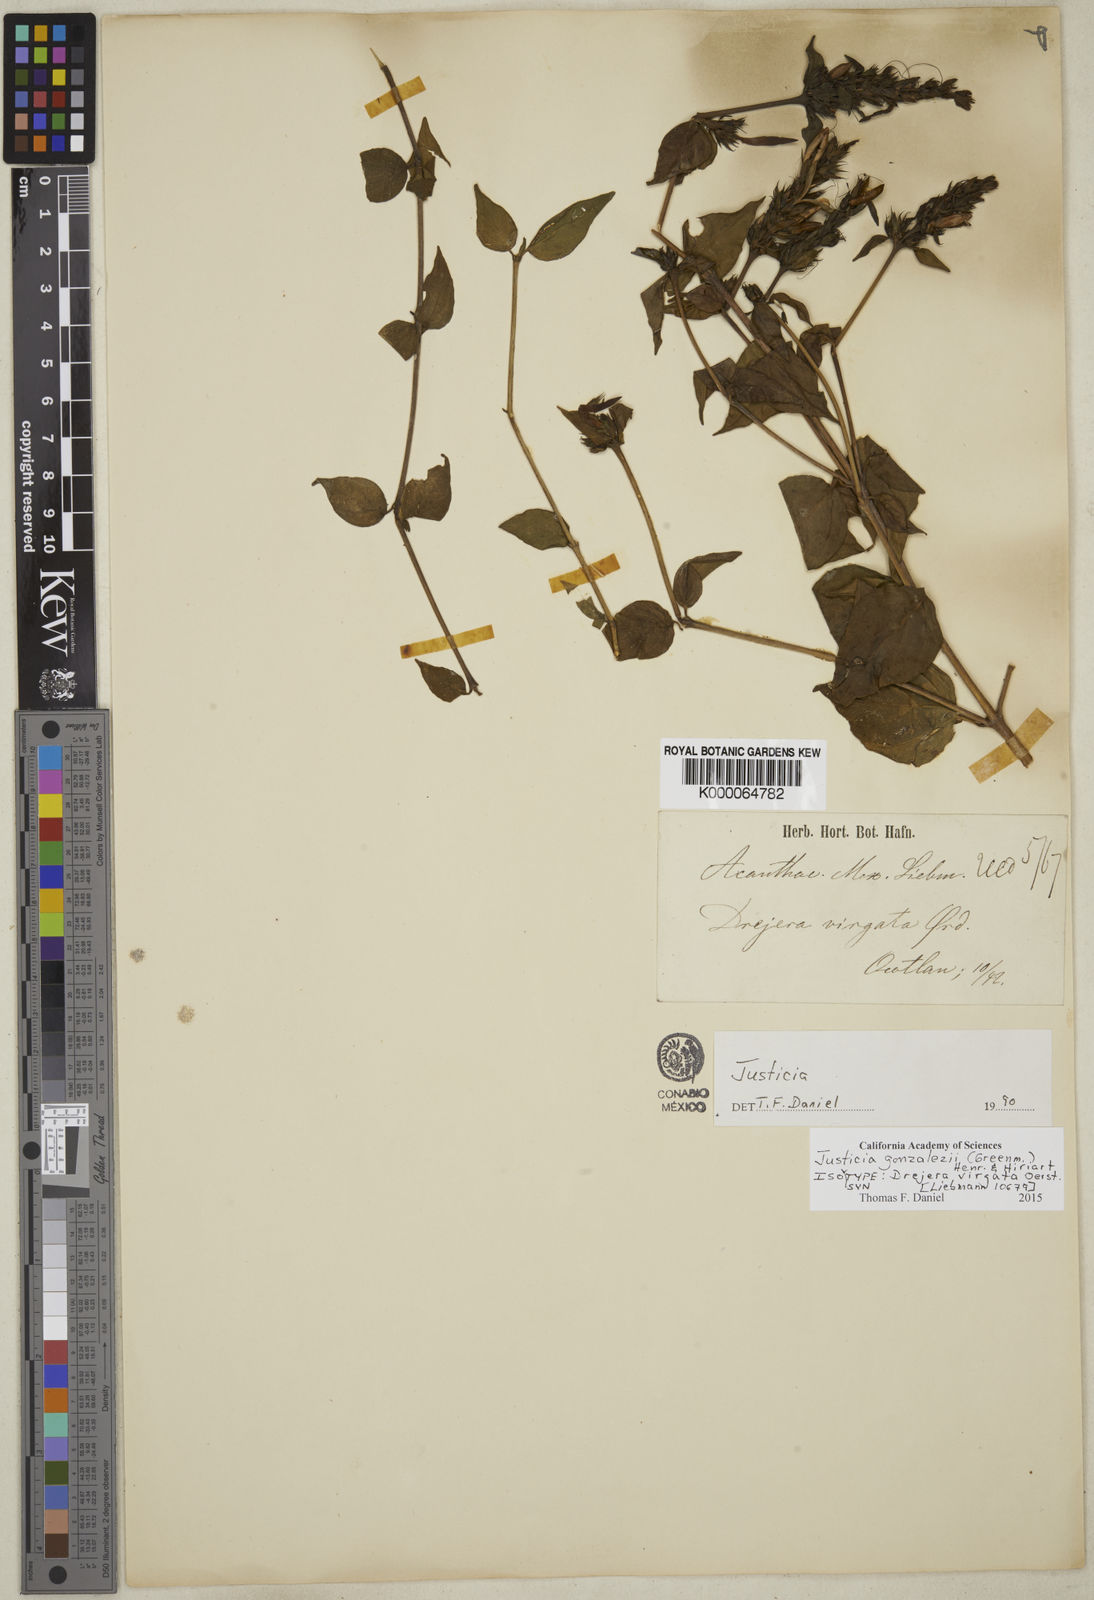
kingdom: Plantae
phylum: Tracheophyta
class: Magnoliopsida
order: Lamiales
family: Acanthaceae
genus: Justicia
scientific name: Justicia gonzalezii
